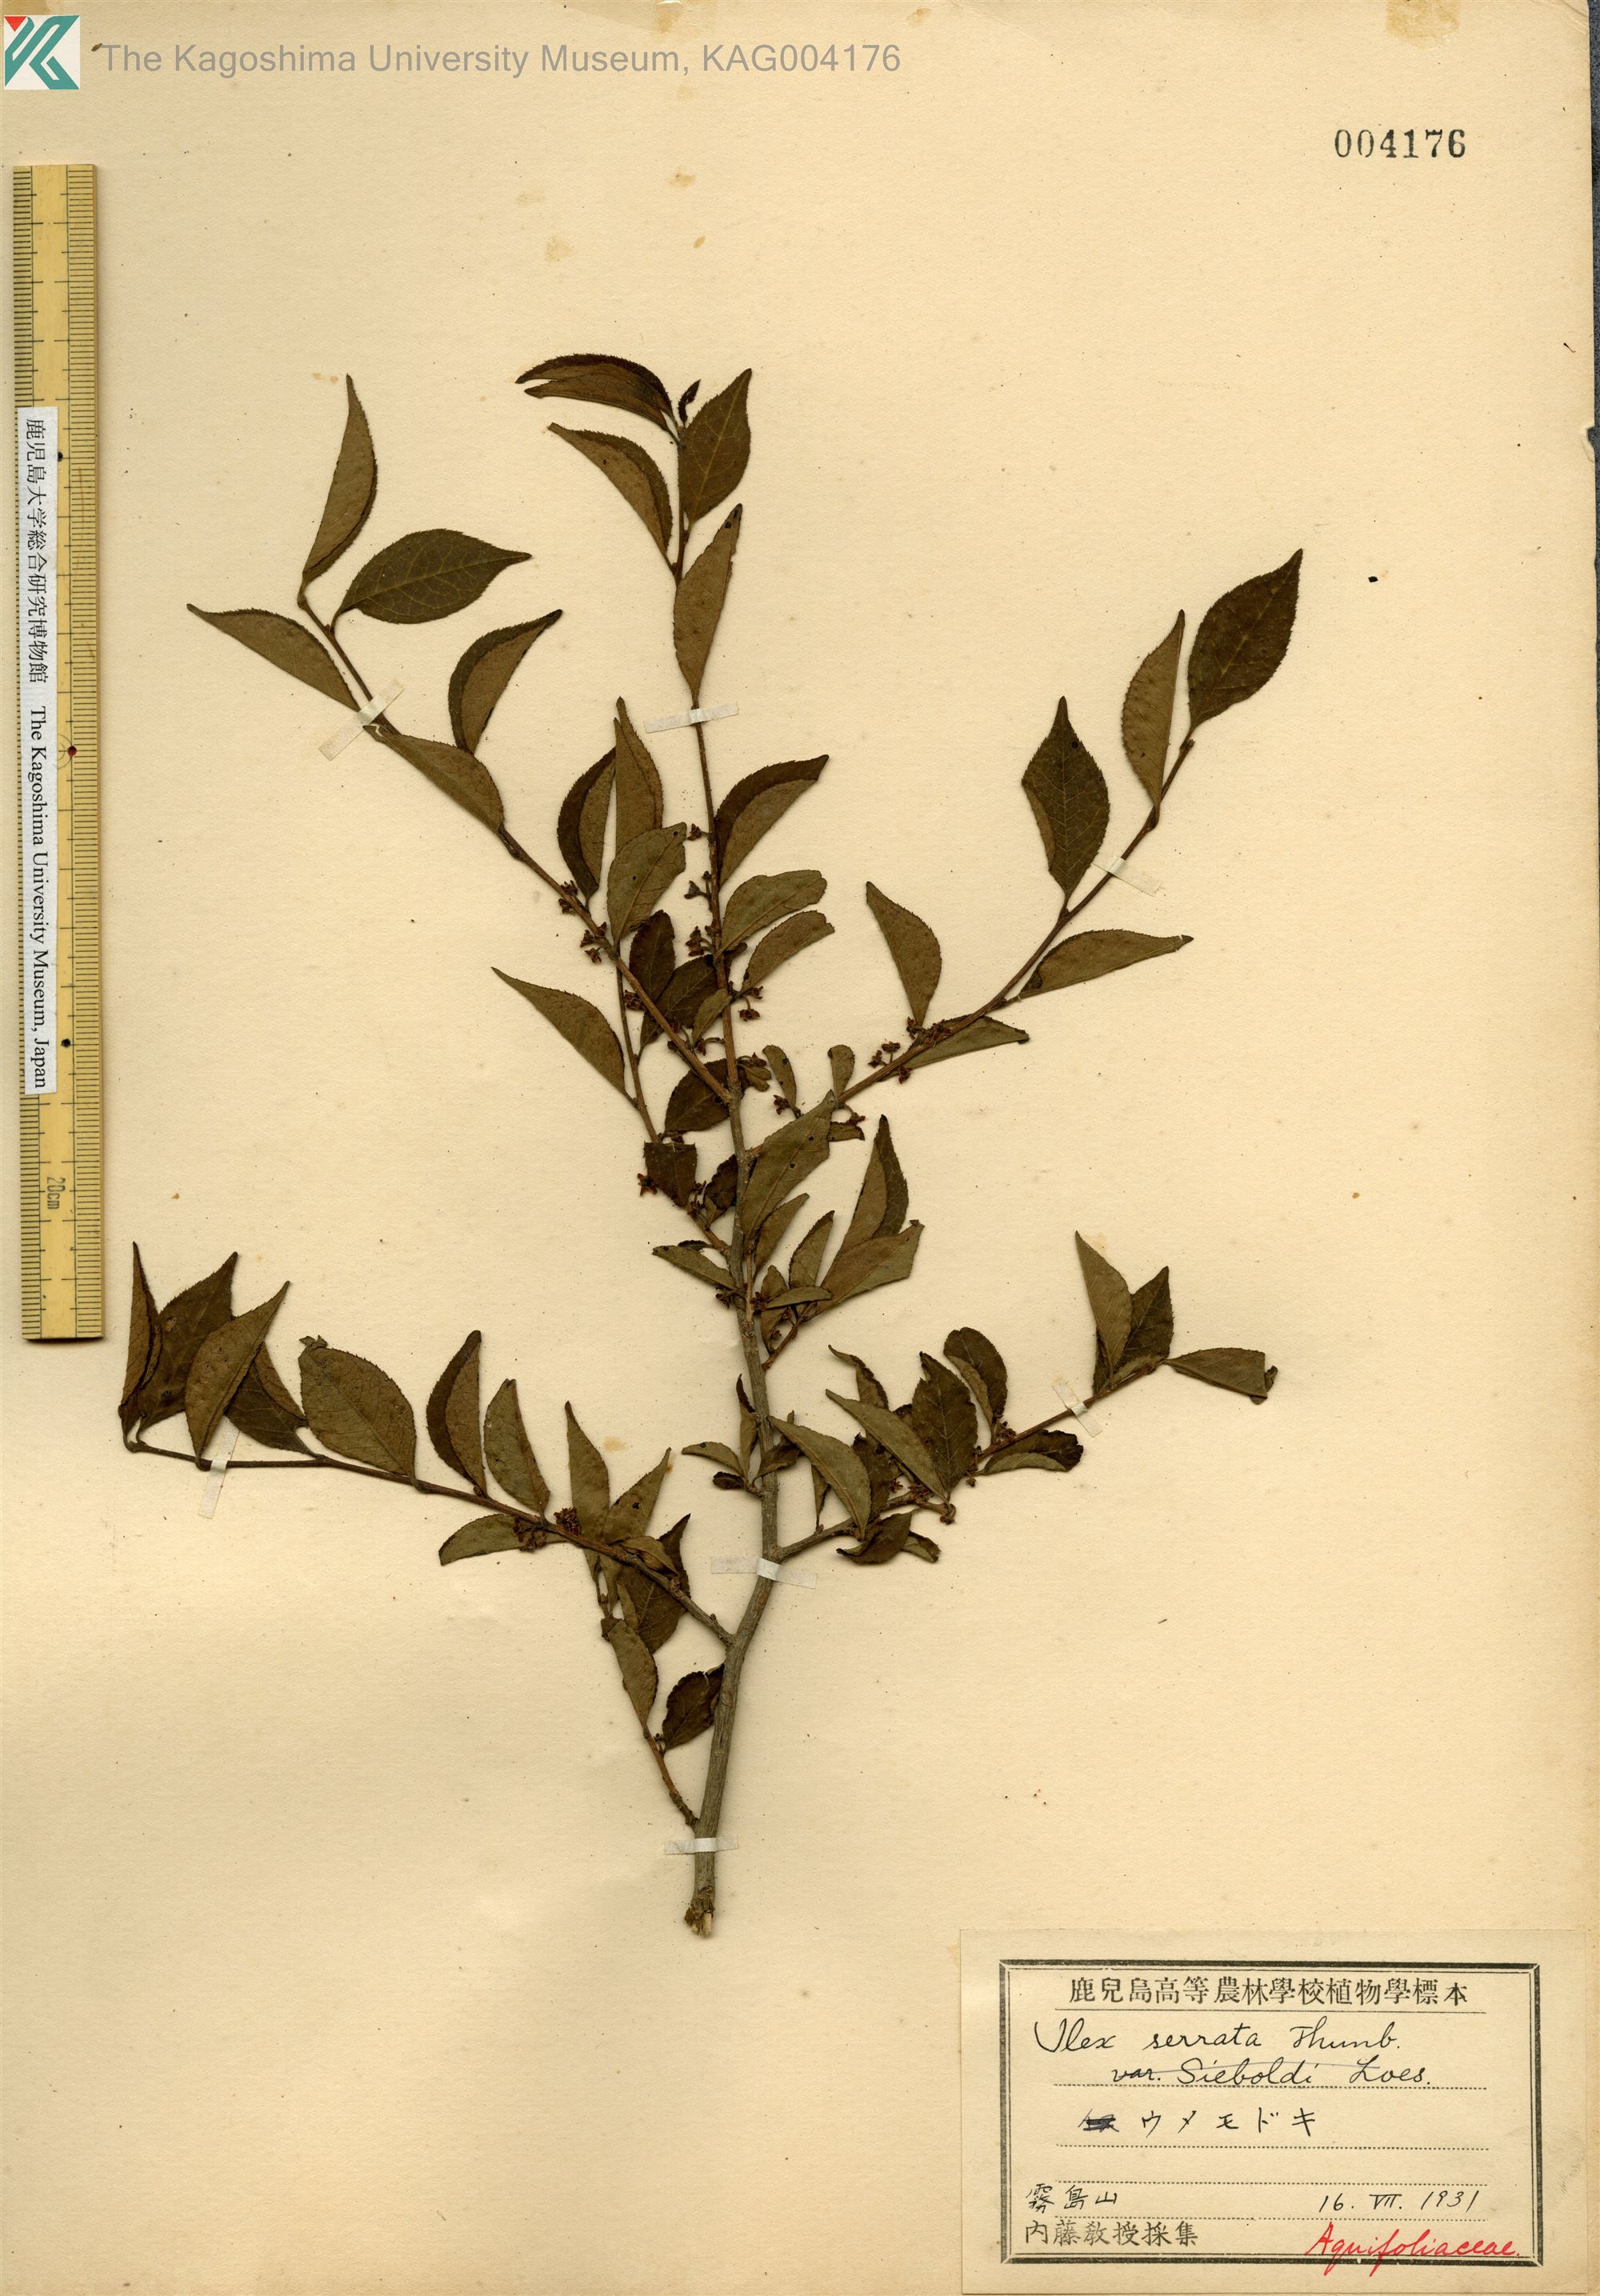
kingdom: Plantae
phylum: Tracheophyta
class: Magnoliopsida
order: Aquifoliales
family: Aquifoliaceae
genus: Ilex
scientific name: Ilex serrata
